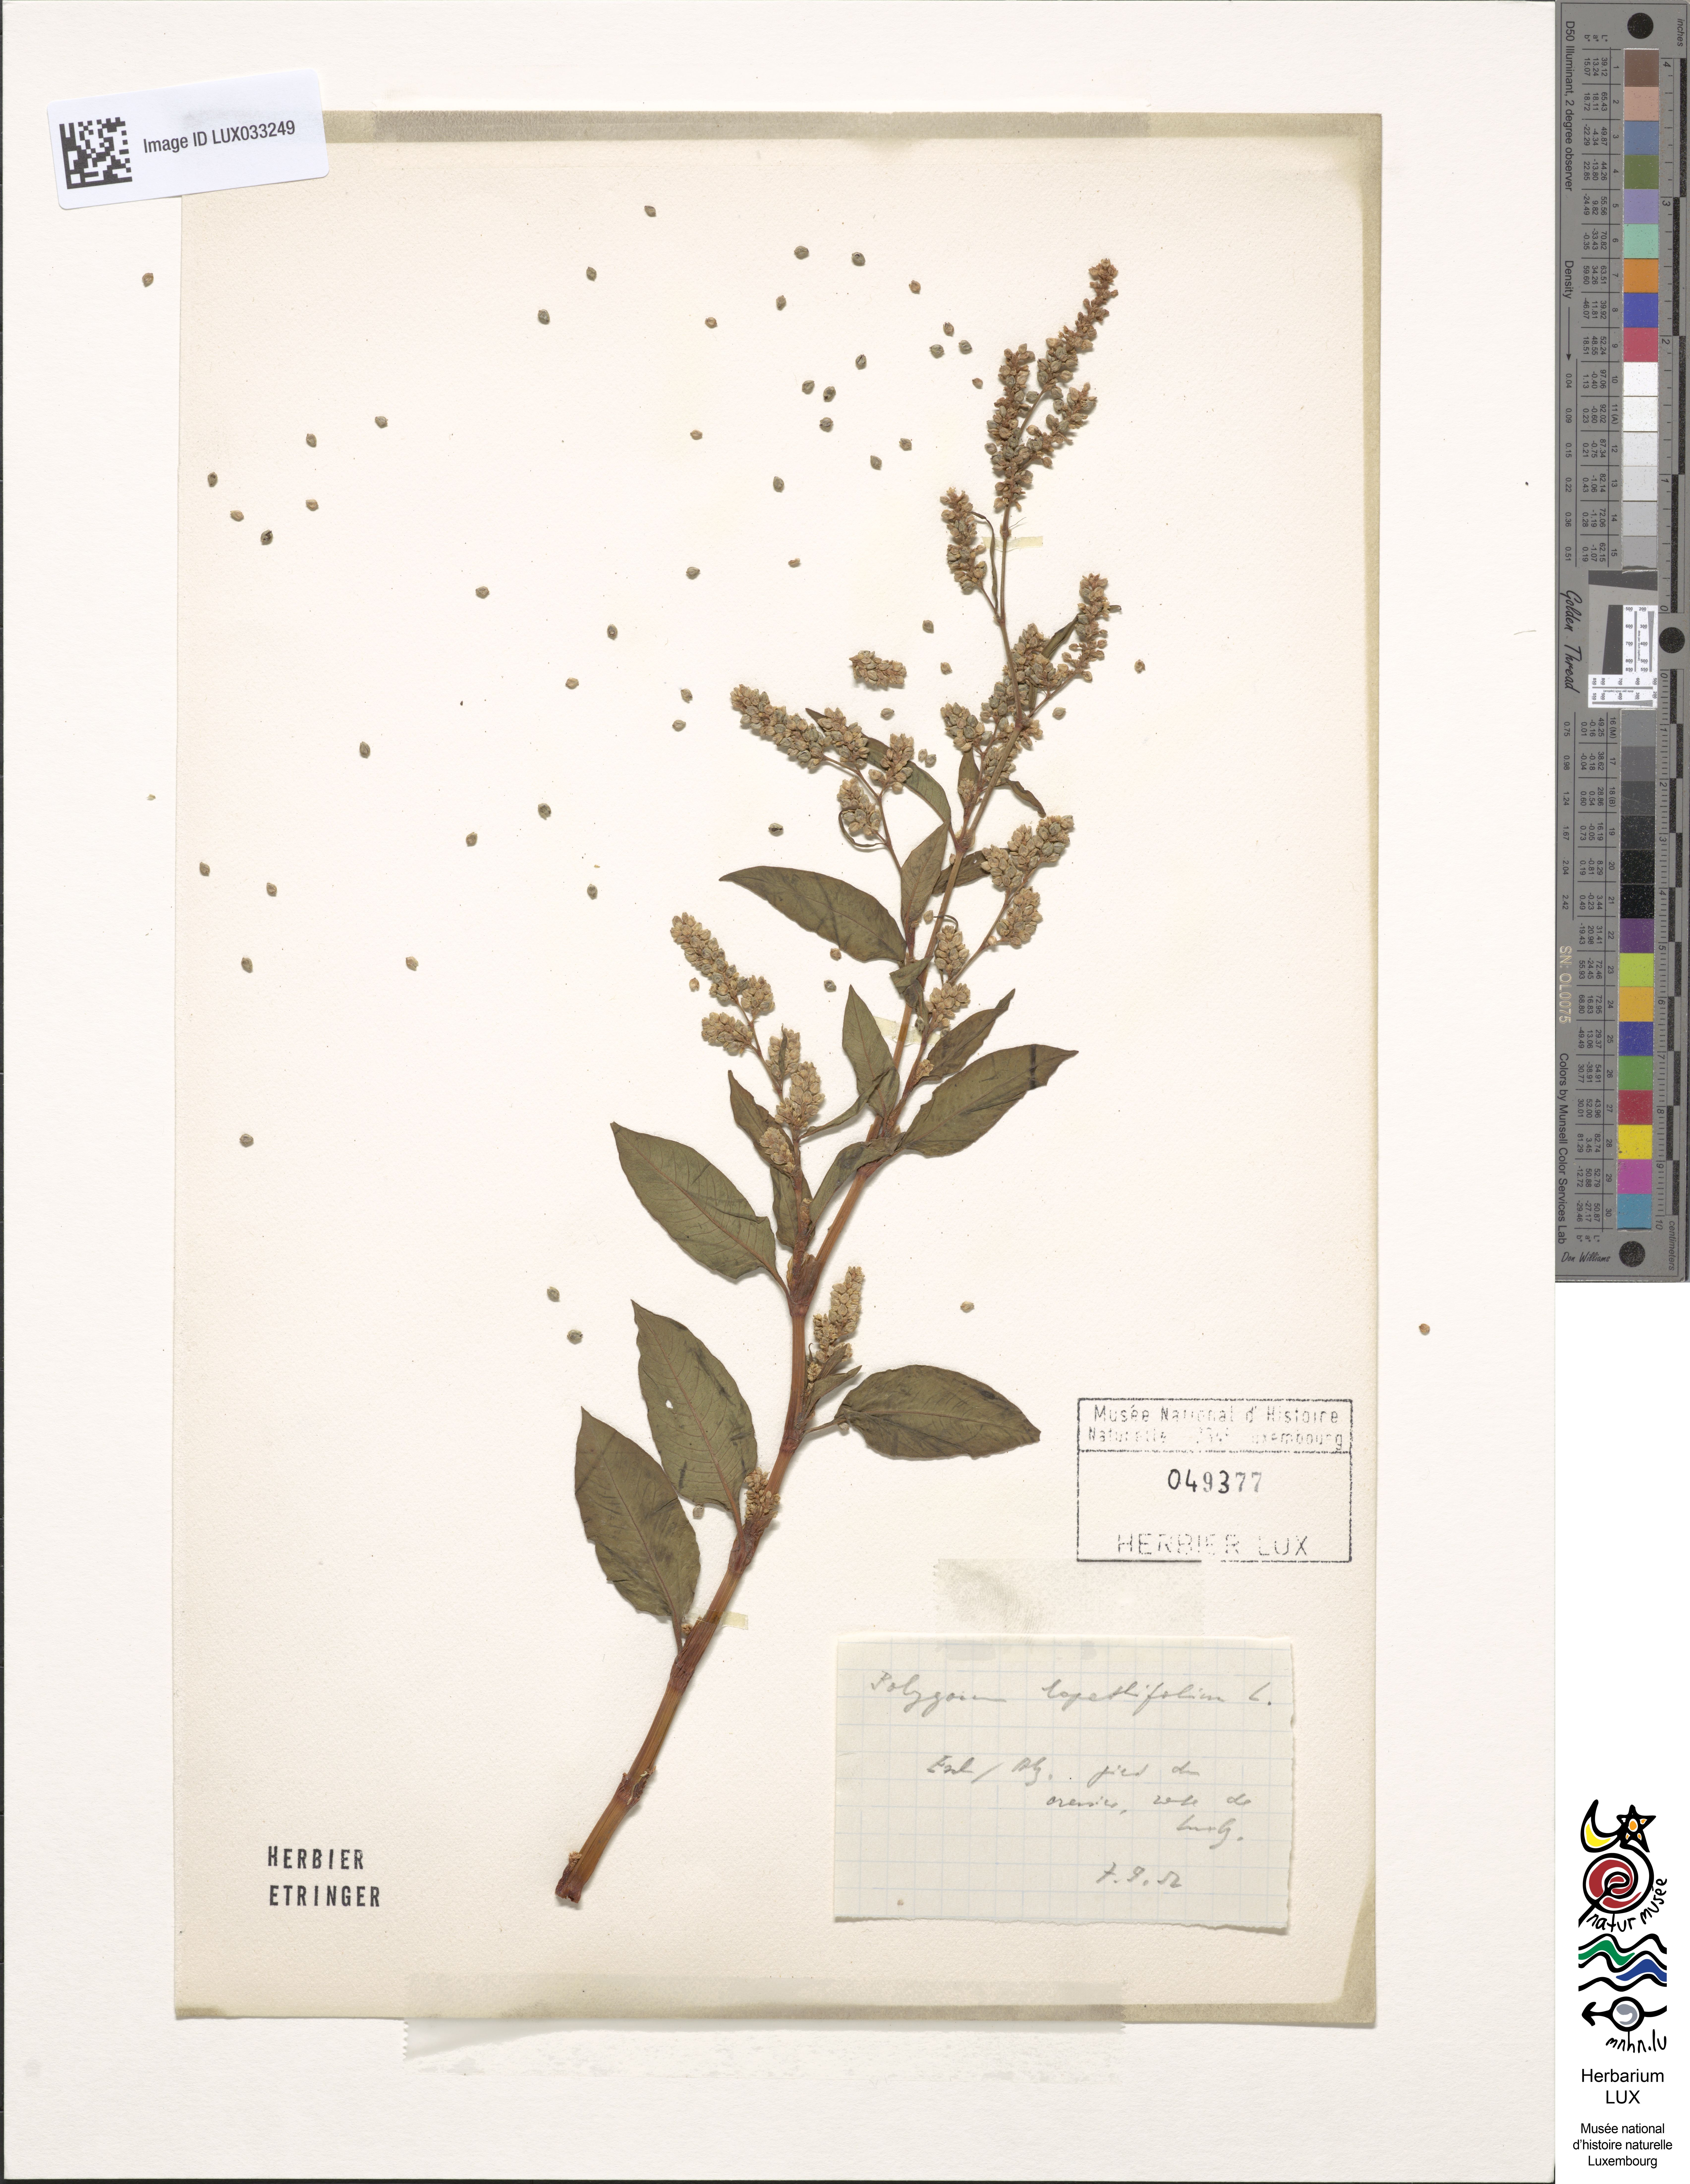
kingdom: Plantae
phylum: Tracheophyta
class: Magnoliopsida
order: Caryophyllales
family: Polygonaceae
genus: Persicaria
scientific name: Persicaria lapathifolia
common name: Curlytop knotweed
